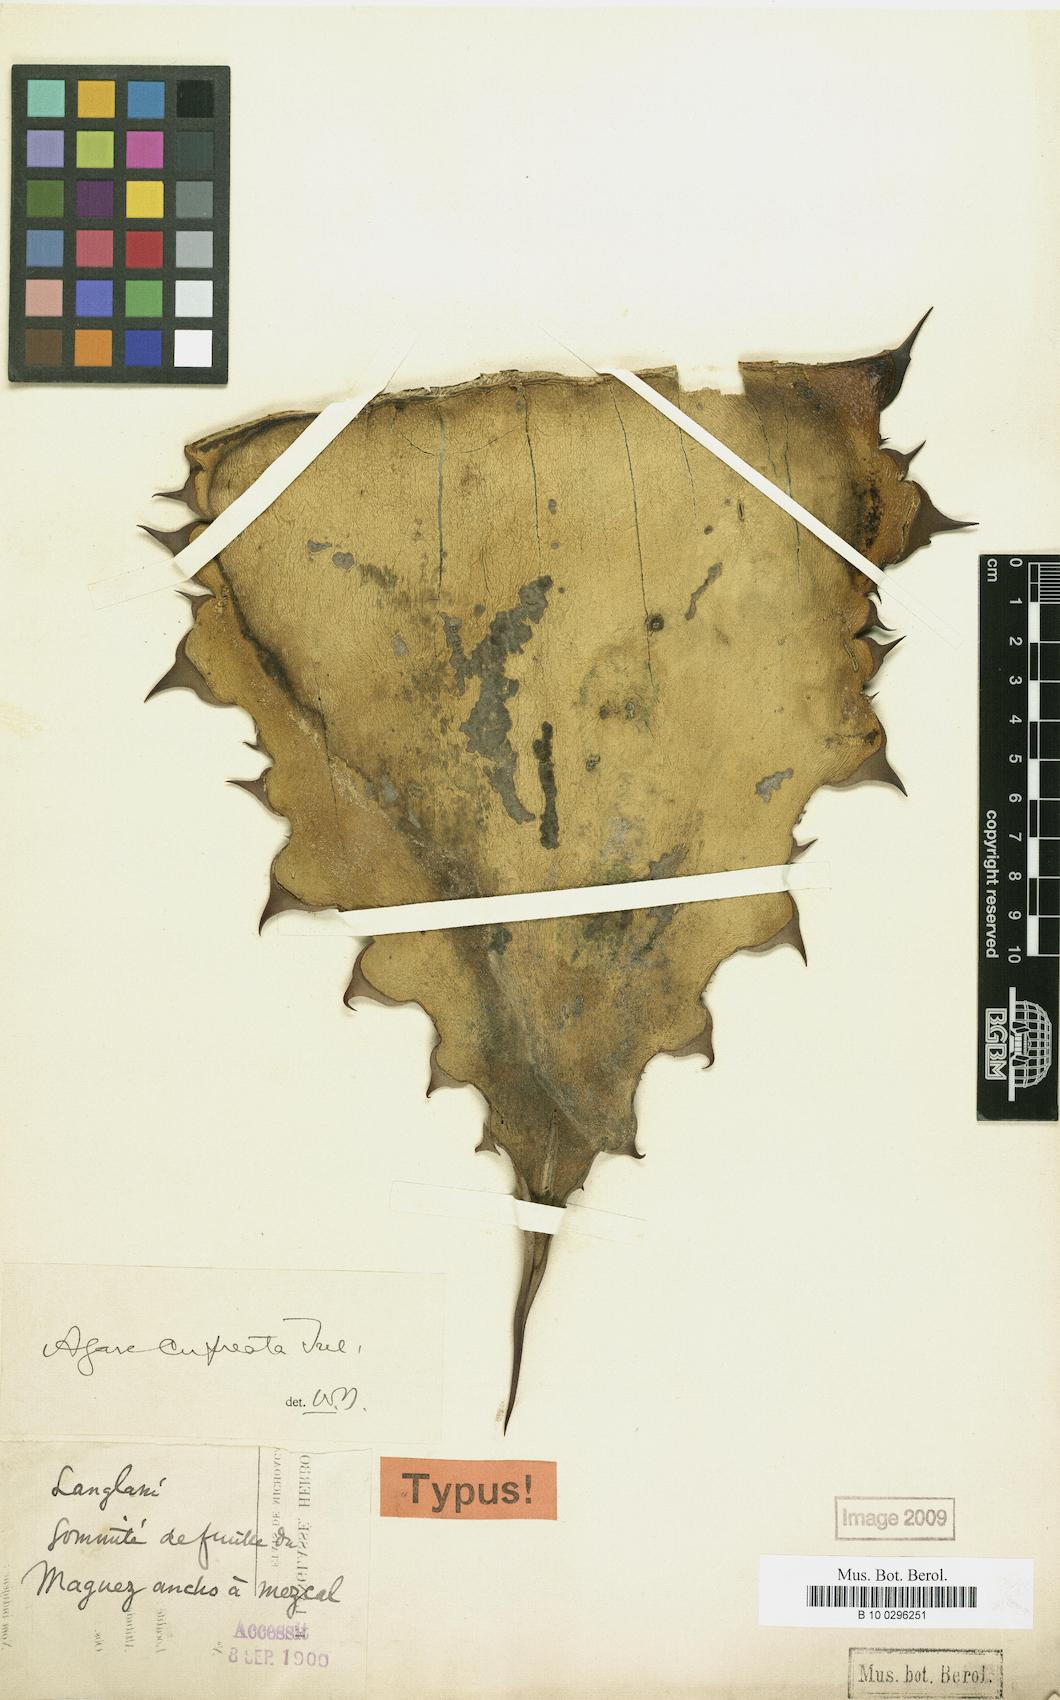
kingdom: Plantae
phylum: Tracheophyta
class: Liliopsida
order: Asparagales
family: Asparagaceae
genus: Agave
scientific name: Agave cupreata
